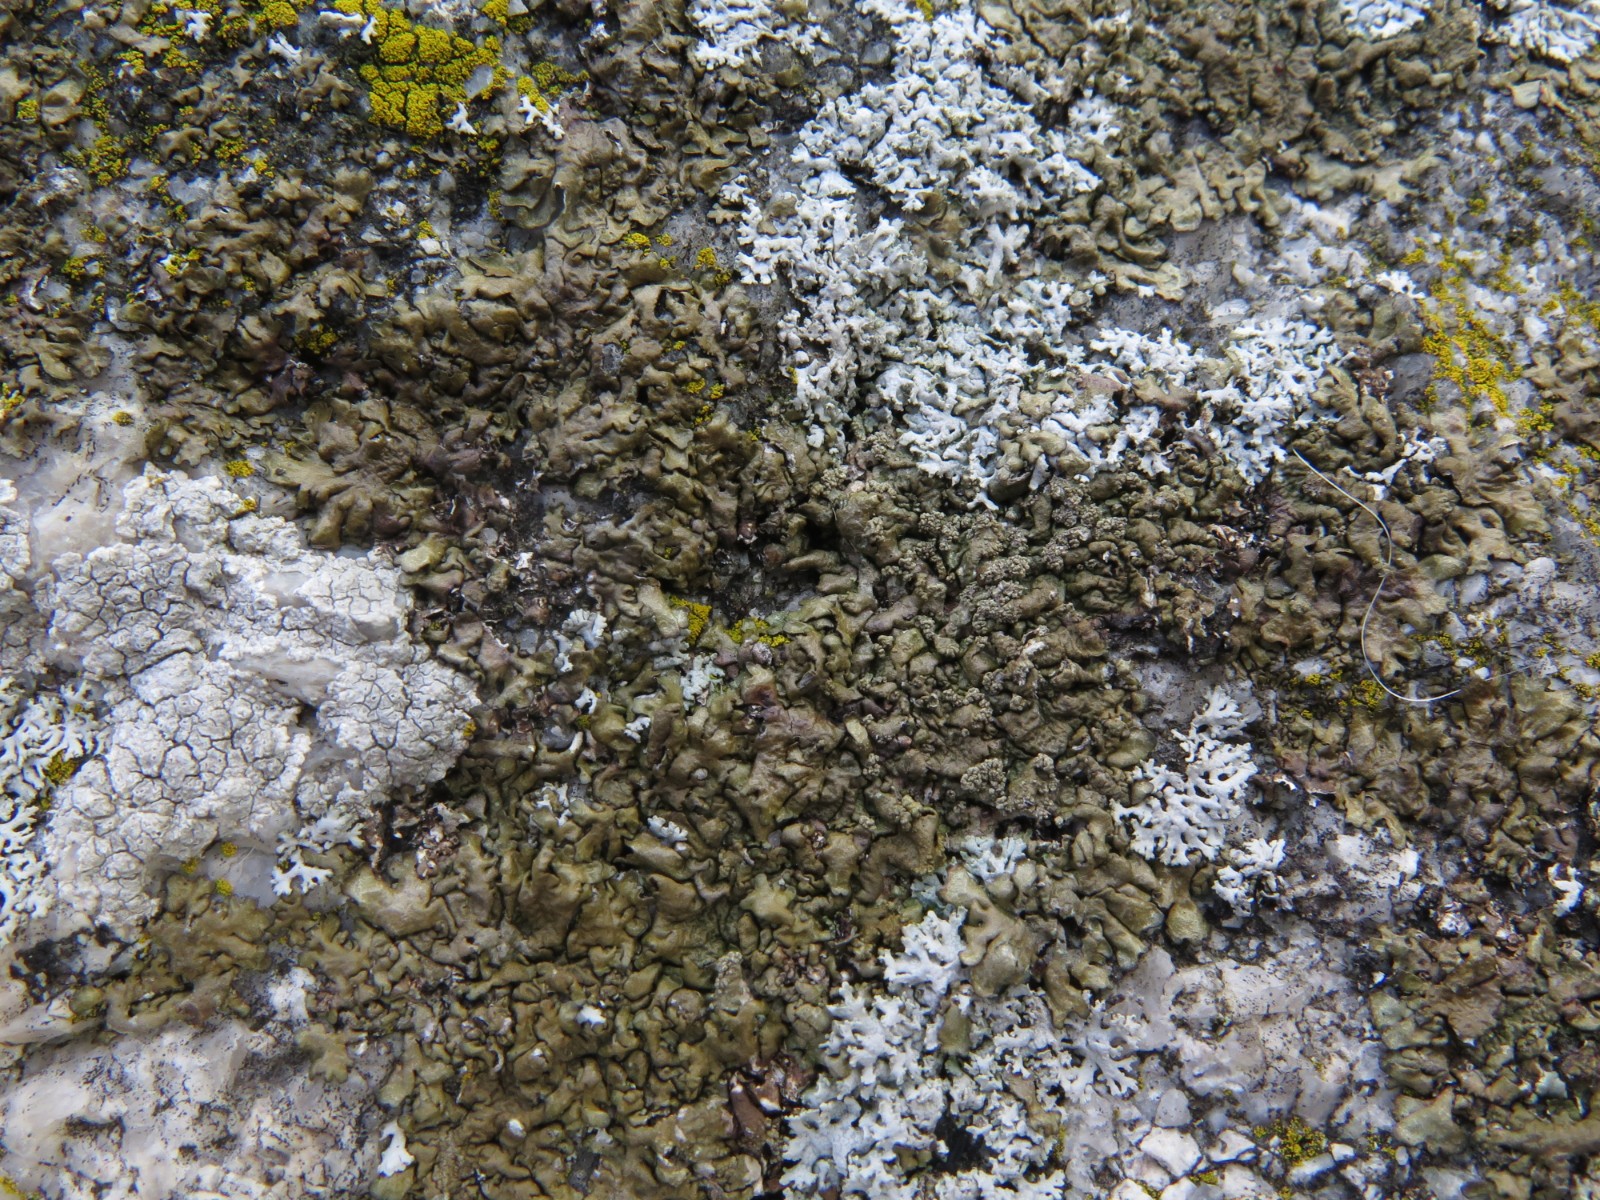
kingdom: Fungi
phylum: Ascomycota
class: Lecanoromycetes
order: Lecanorales
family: Parmeliaceae
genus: Xanthoparmelia
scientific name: Xanthoparmelia loxodes
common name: knudret skållav
